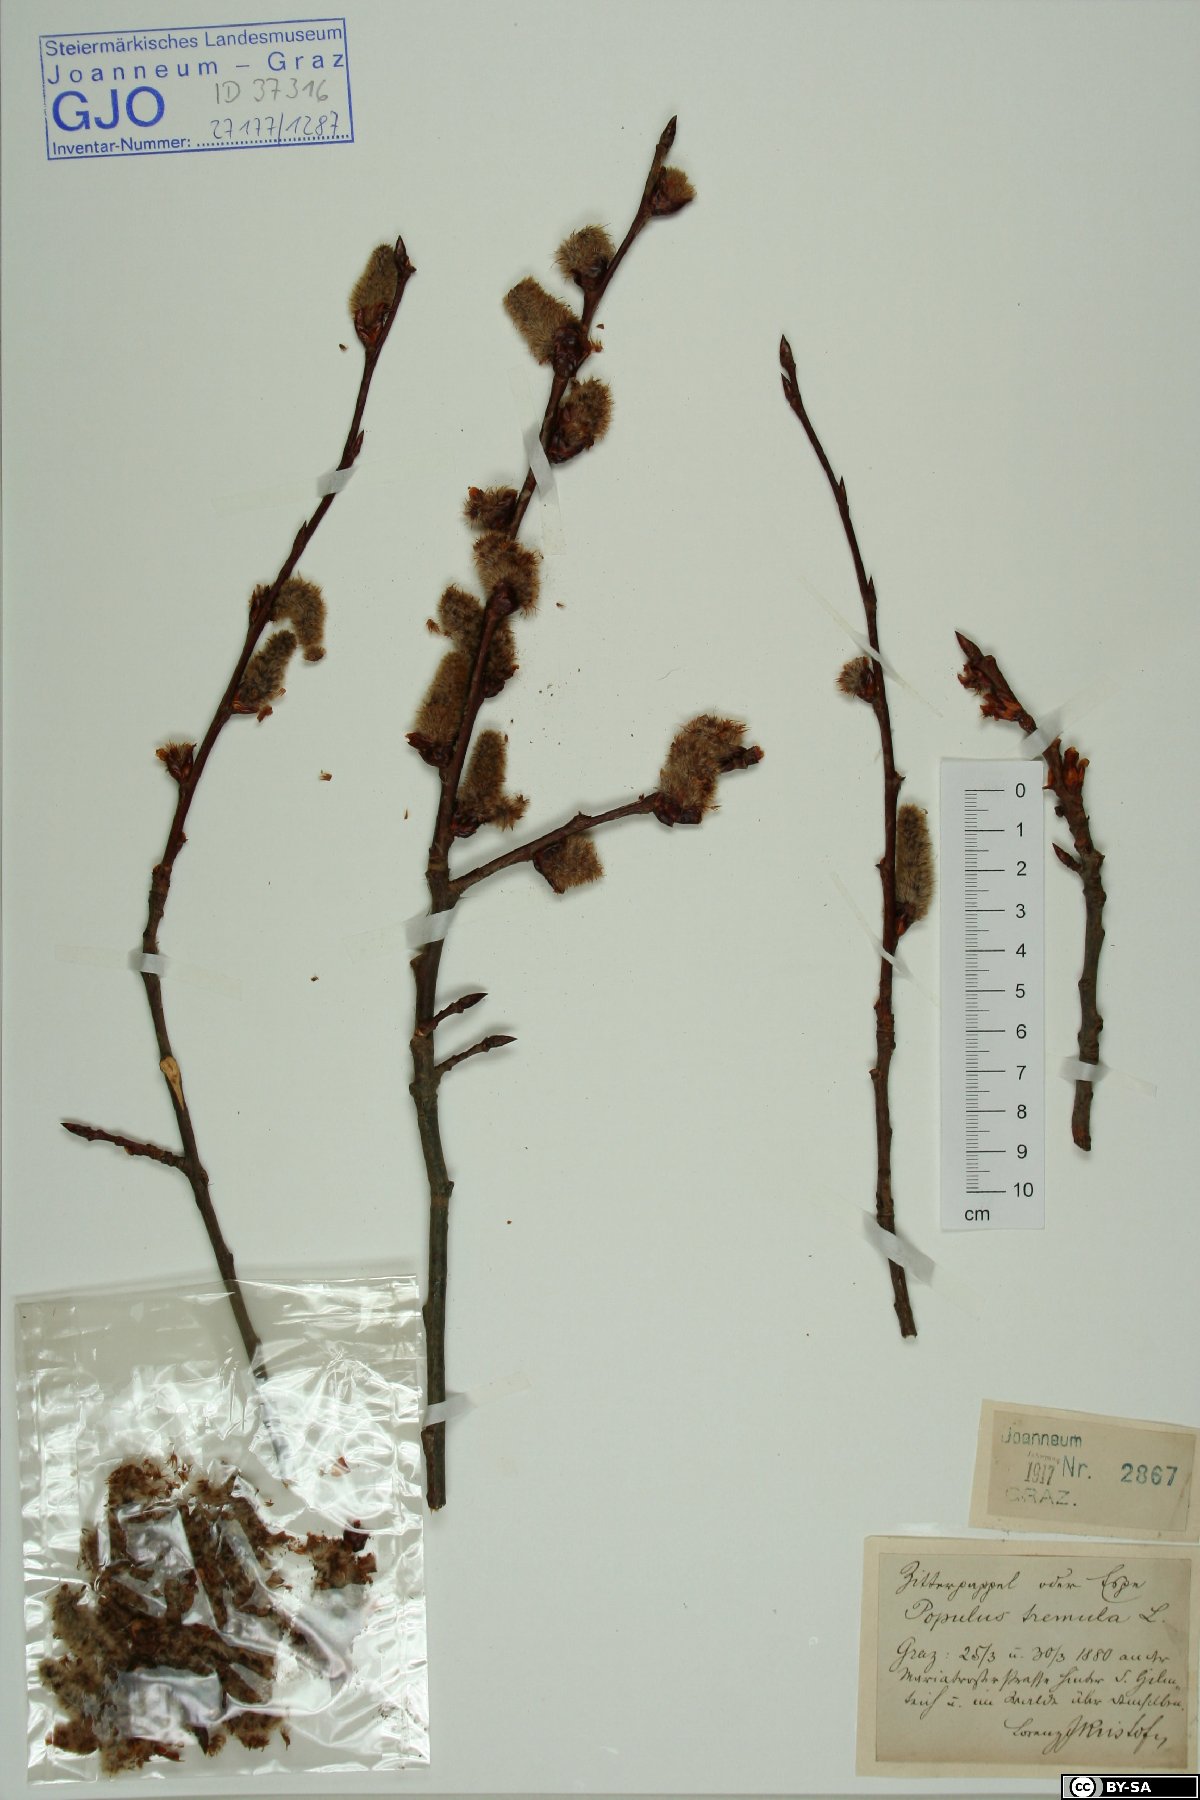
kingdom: Plantae
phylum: Tracheophyta
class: Magnoliopsida
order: Malpighiales
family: Salicaceae
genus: Populus
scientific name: Populus tremula
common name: European aspen
